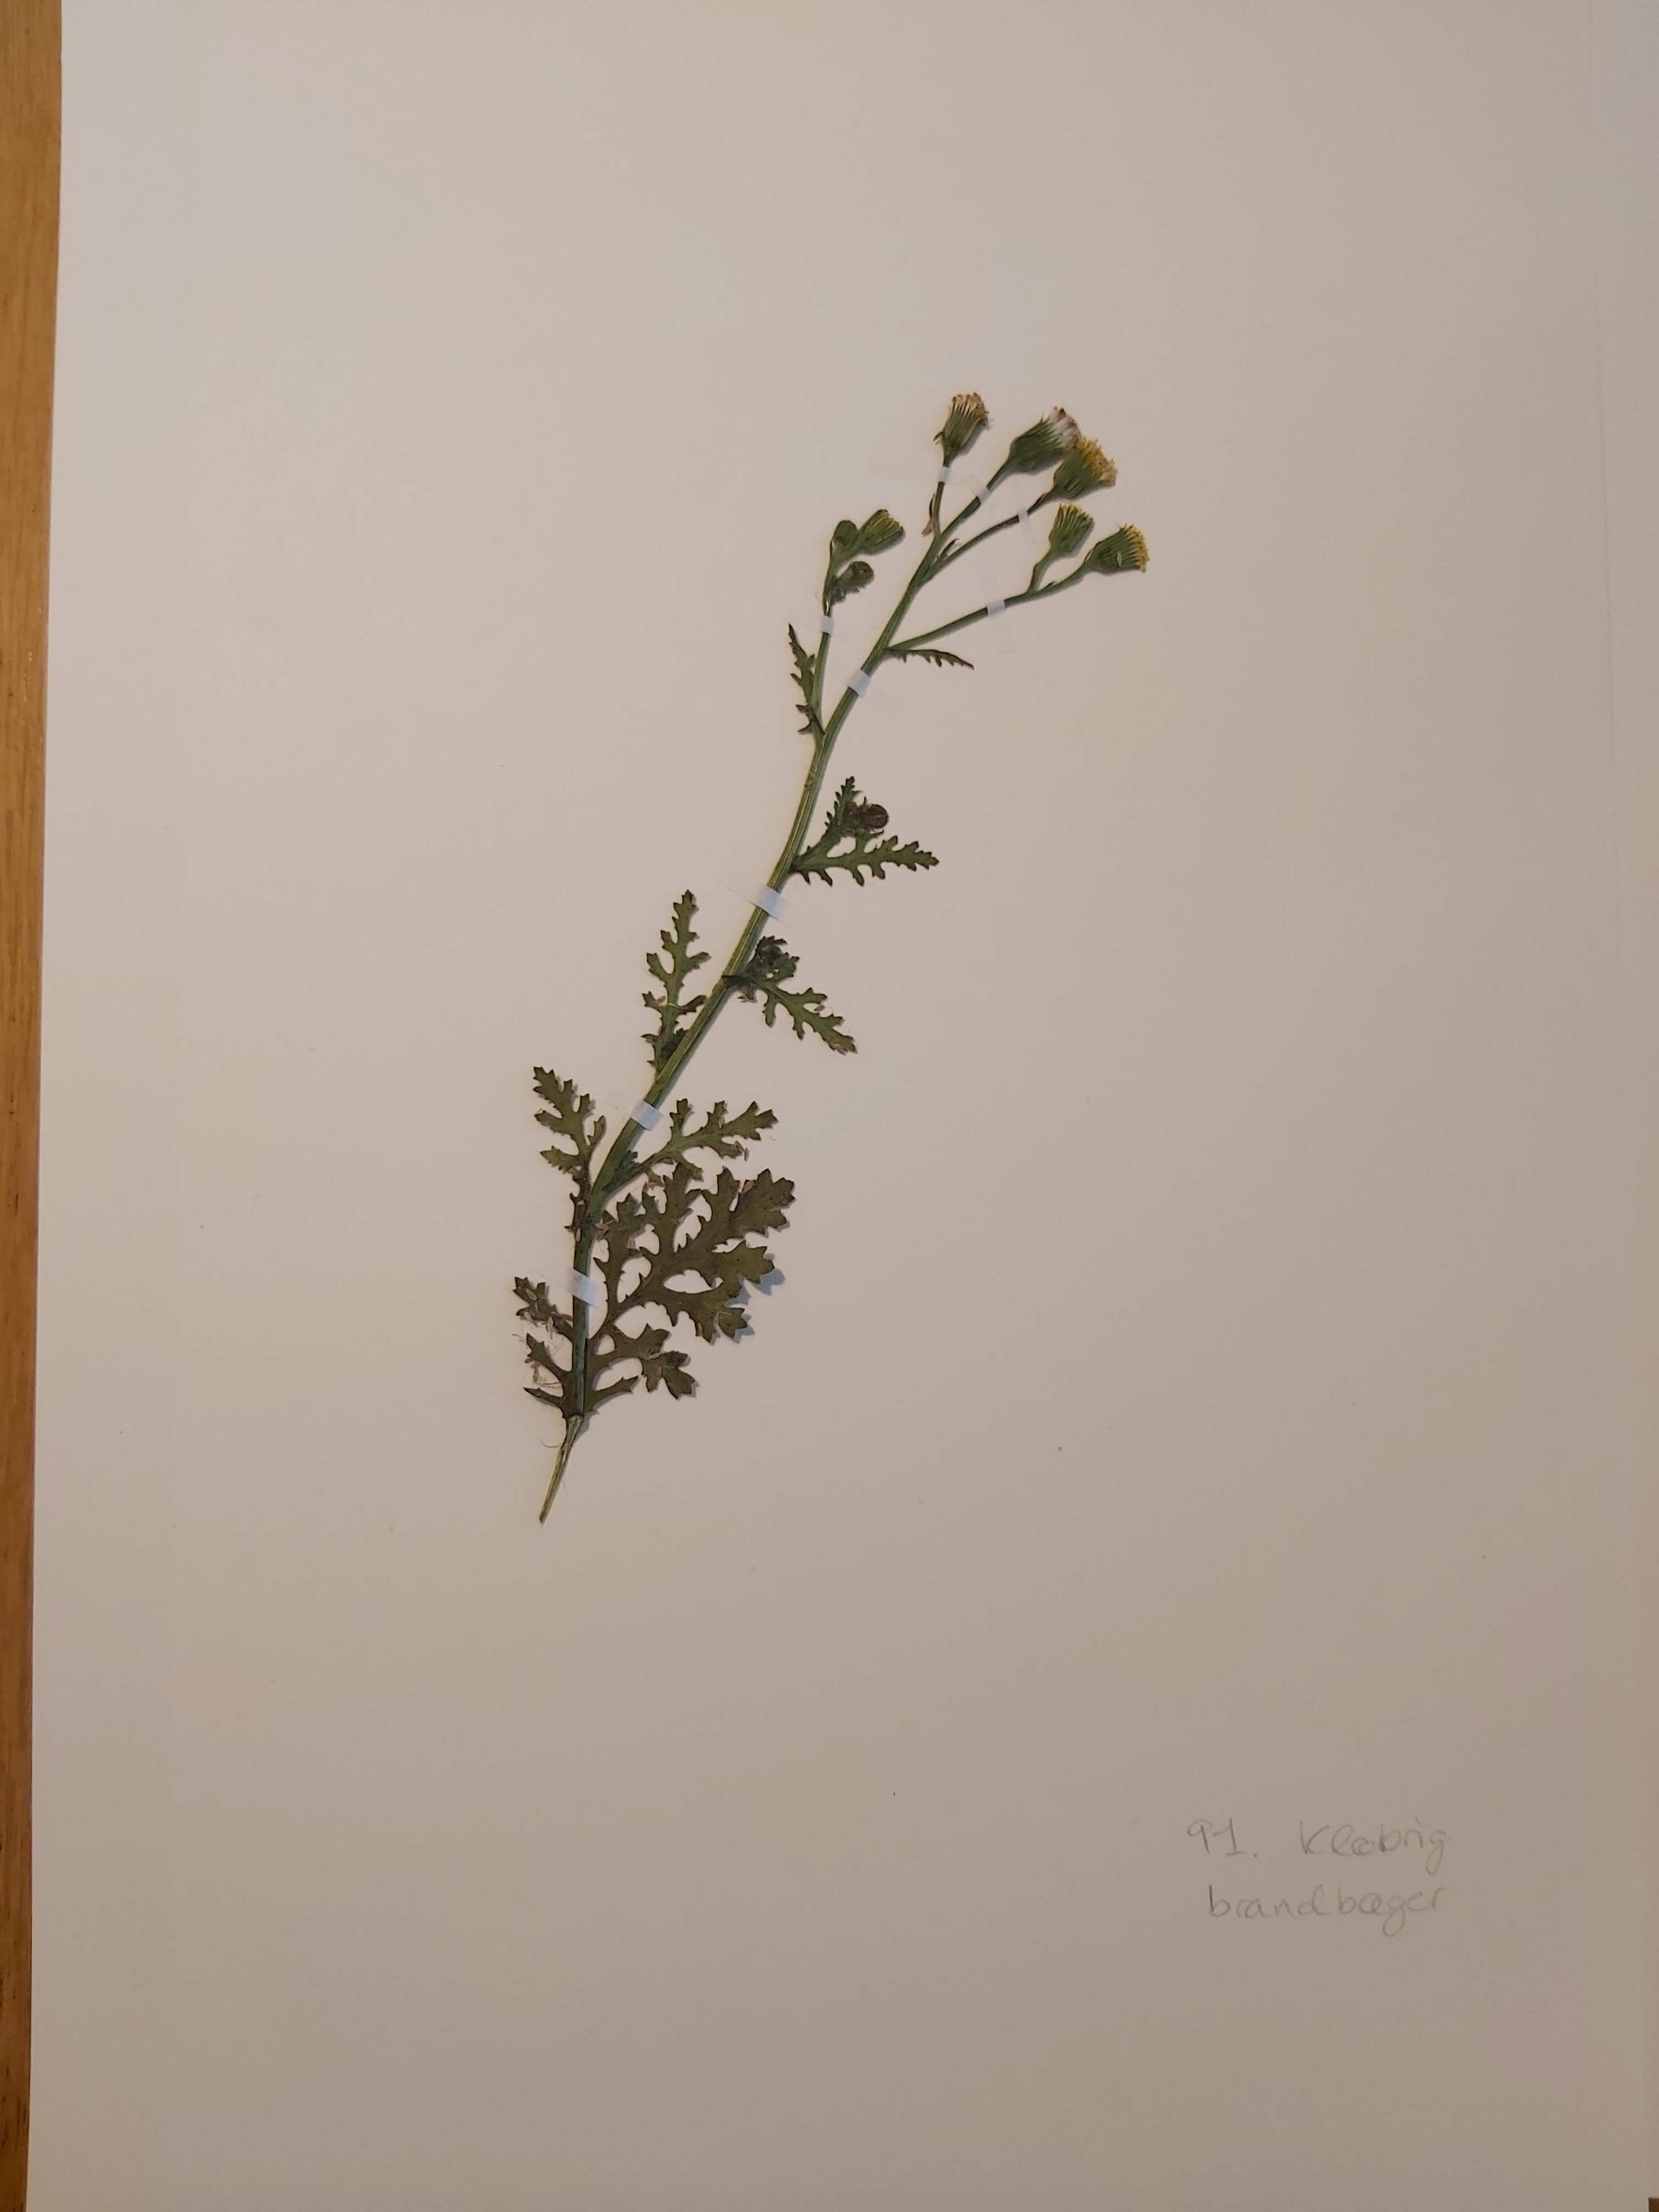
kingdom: Plantae
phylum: Tracheophyta
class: Magnoliopsida
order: Asterales
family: Asteraceae
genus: Senecio
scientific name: Senecio viscosus
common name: Klæbrig brandbæger
